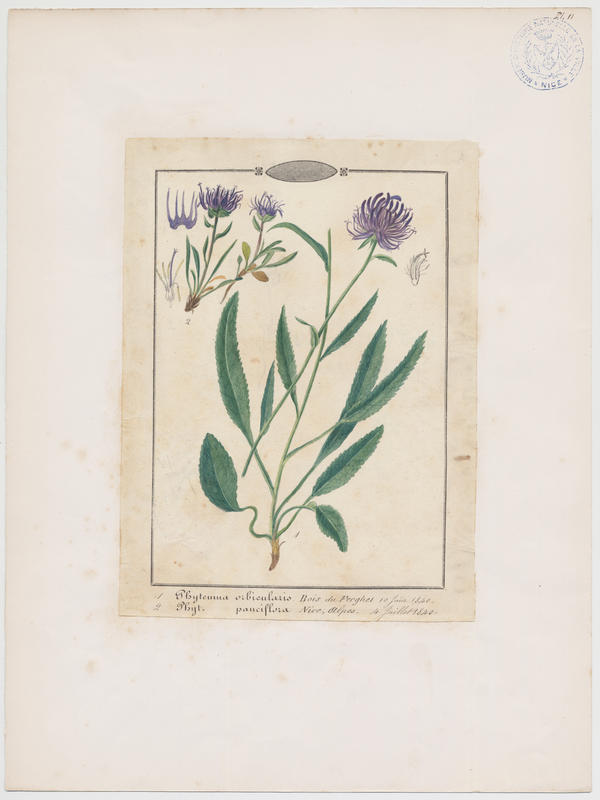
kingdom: Plantae
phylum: Tracheophyta
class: Magnoliopsida
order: Asterales
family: Campanulaceae
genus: Phyteuma
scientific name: Phyteuma globulariifolium
